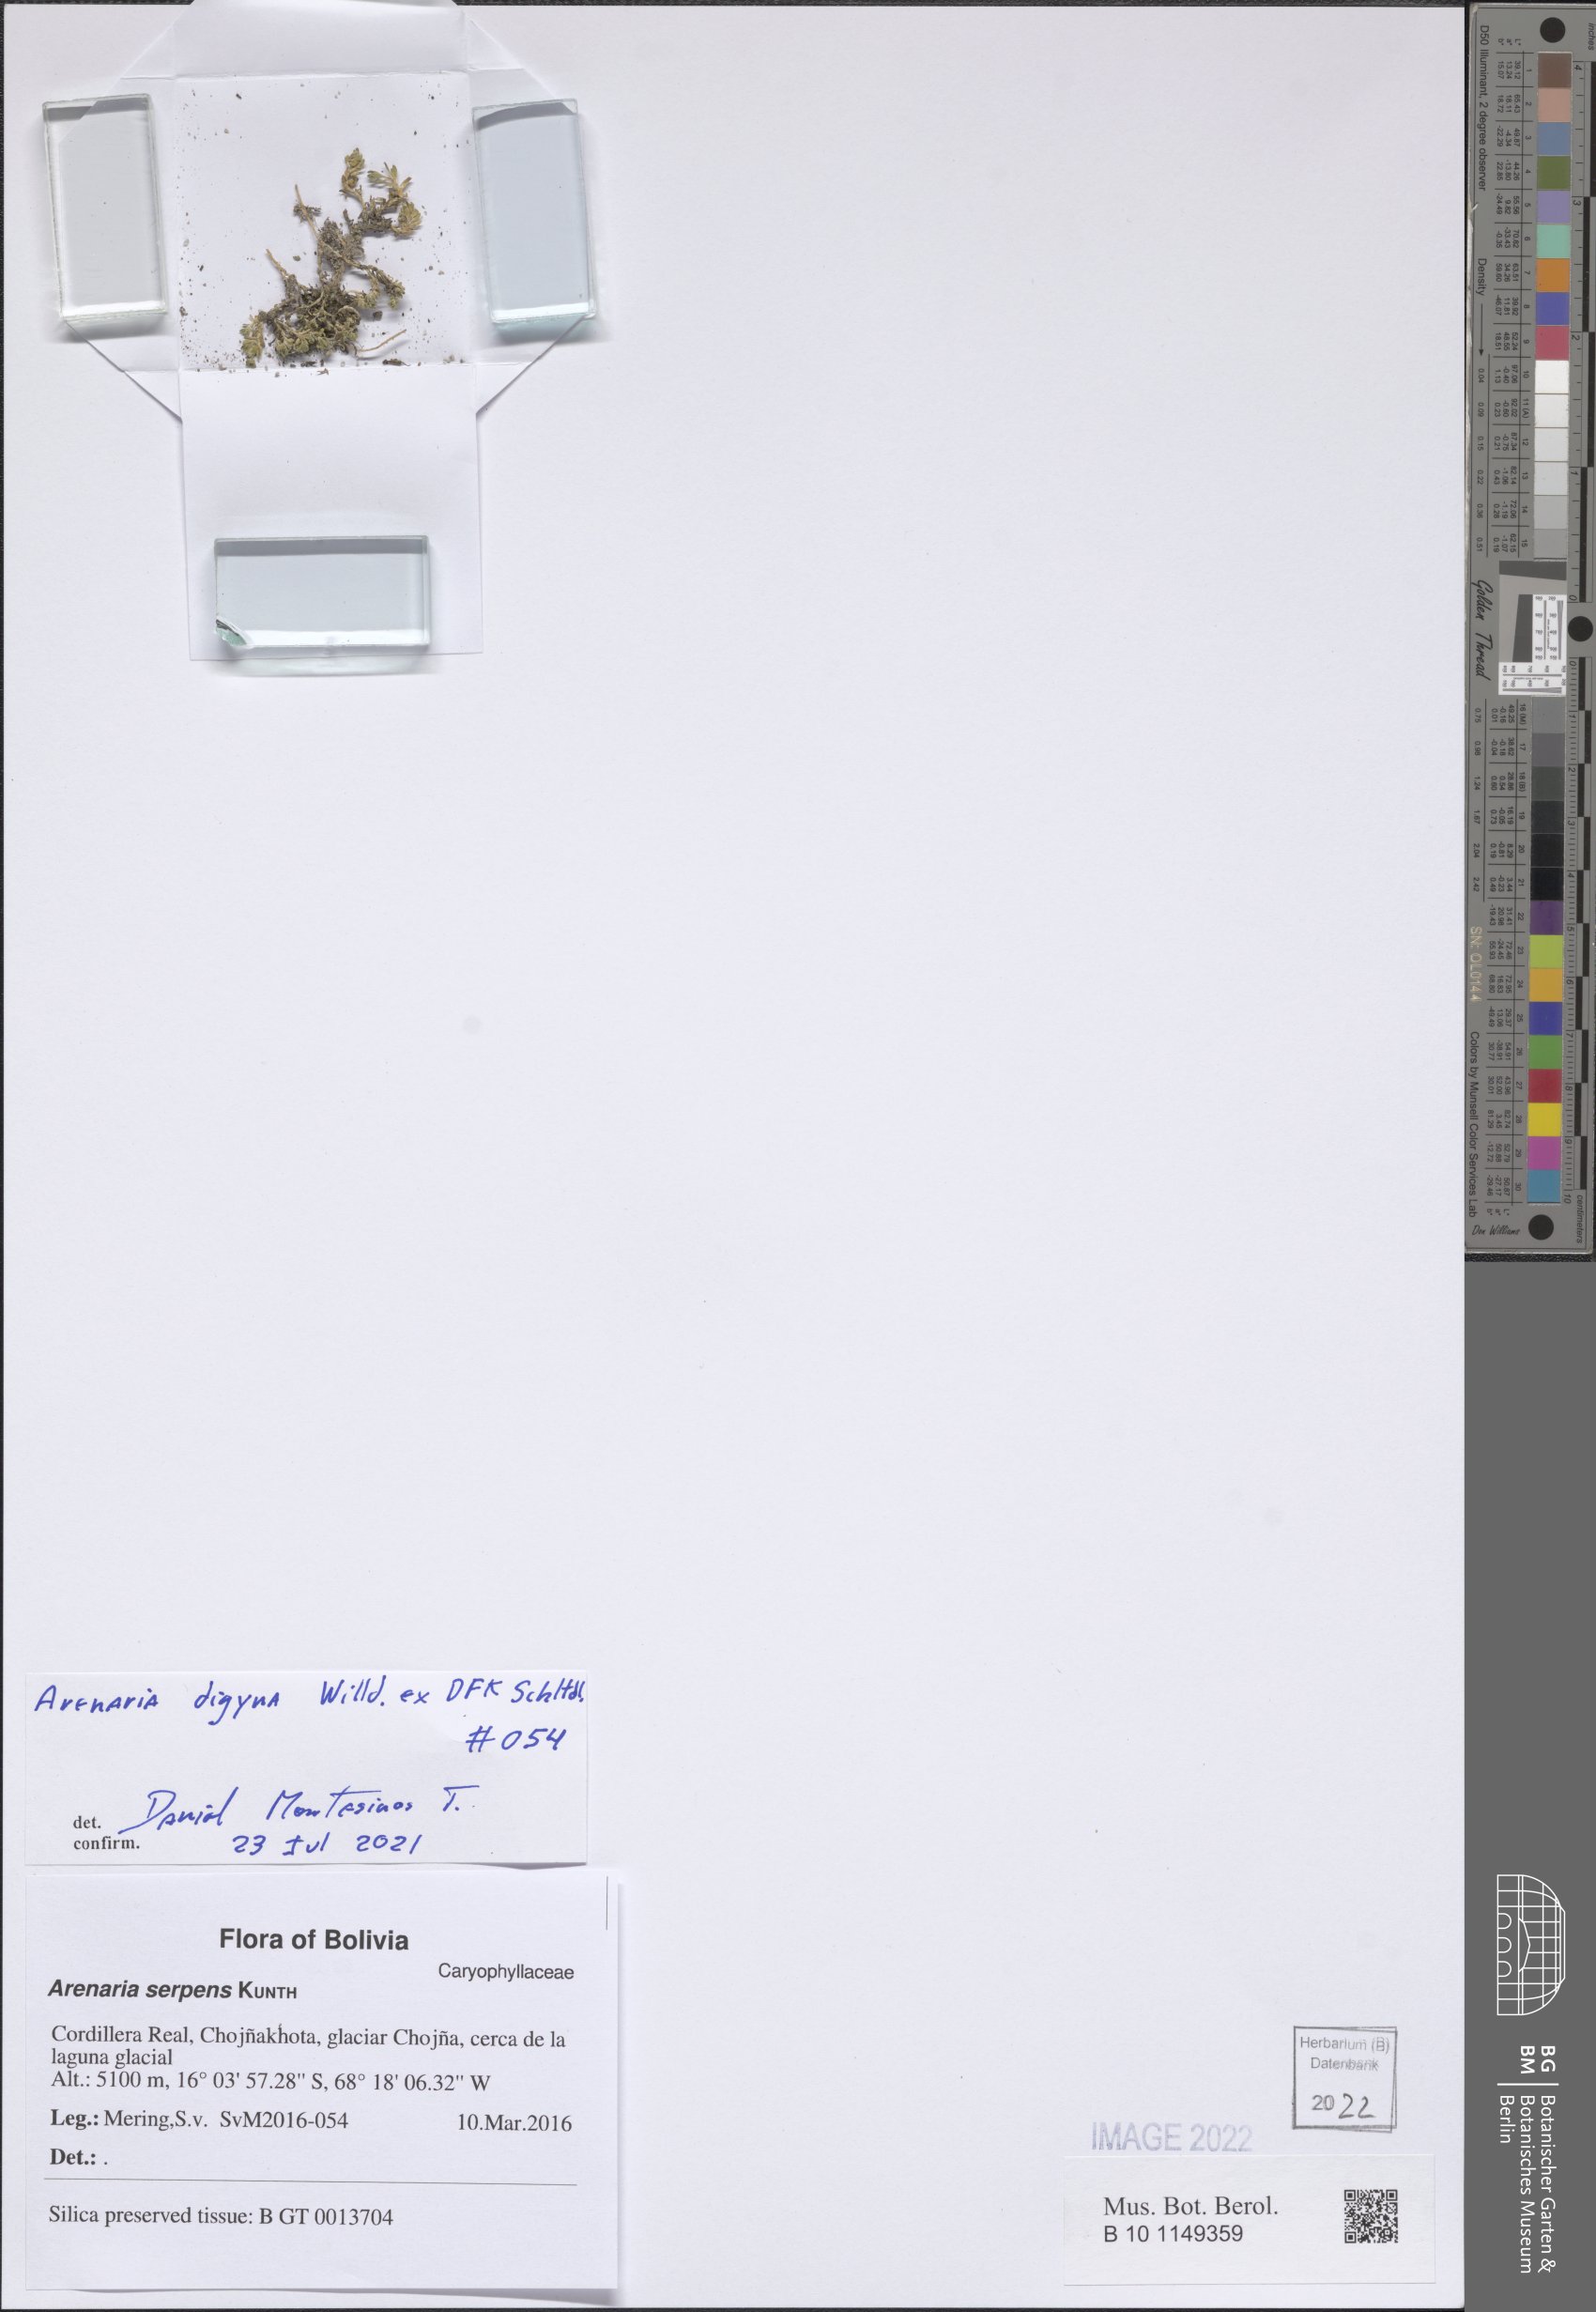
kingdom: Plantae
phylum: Tracheophyta
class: Magnoliopsida
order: Caryophyllales
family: Caryophyllaceae
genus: Arenaria
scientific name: Arenaria digyna
